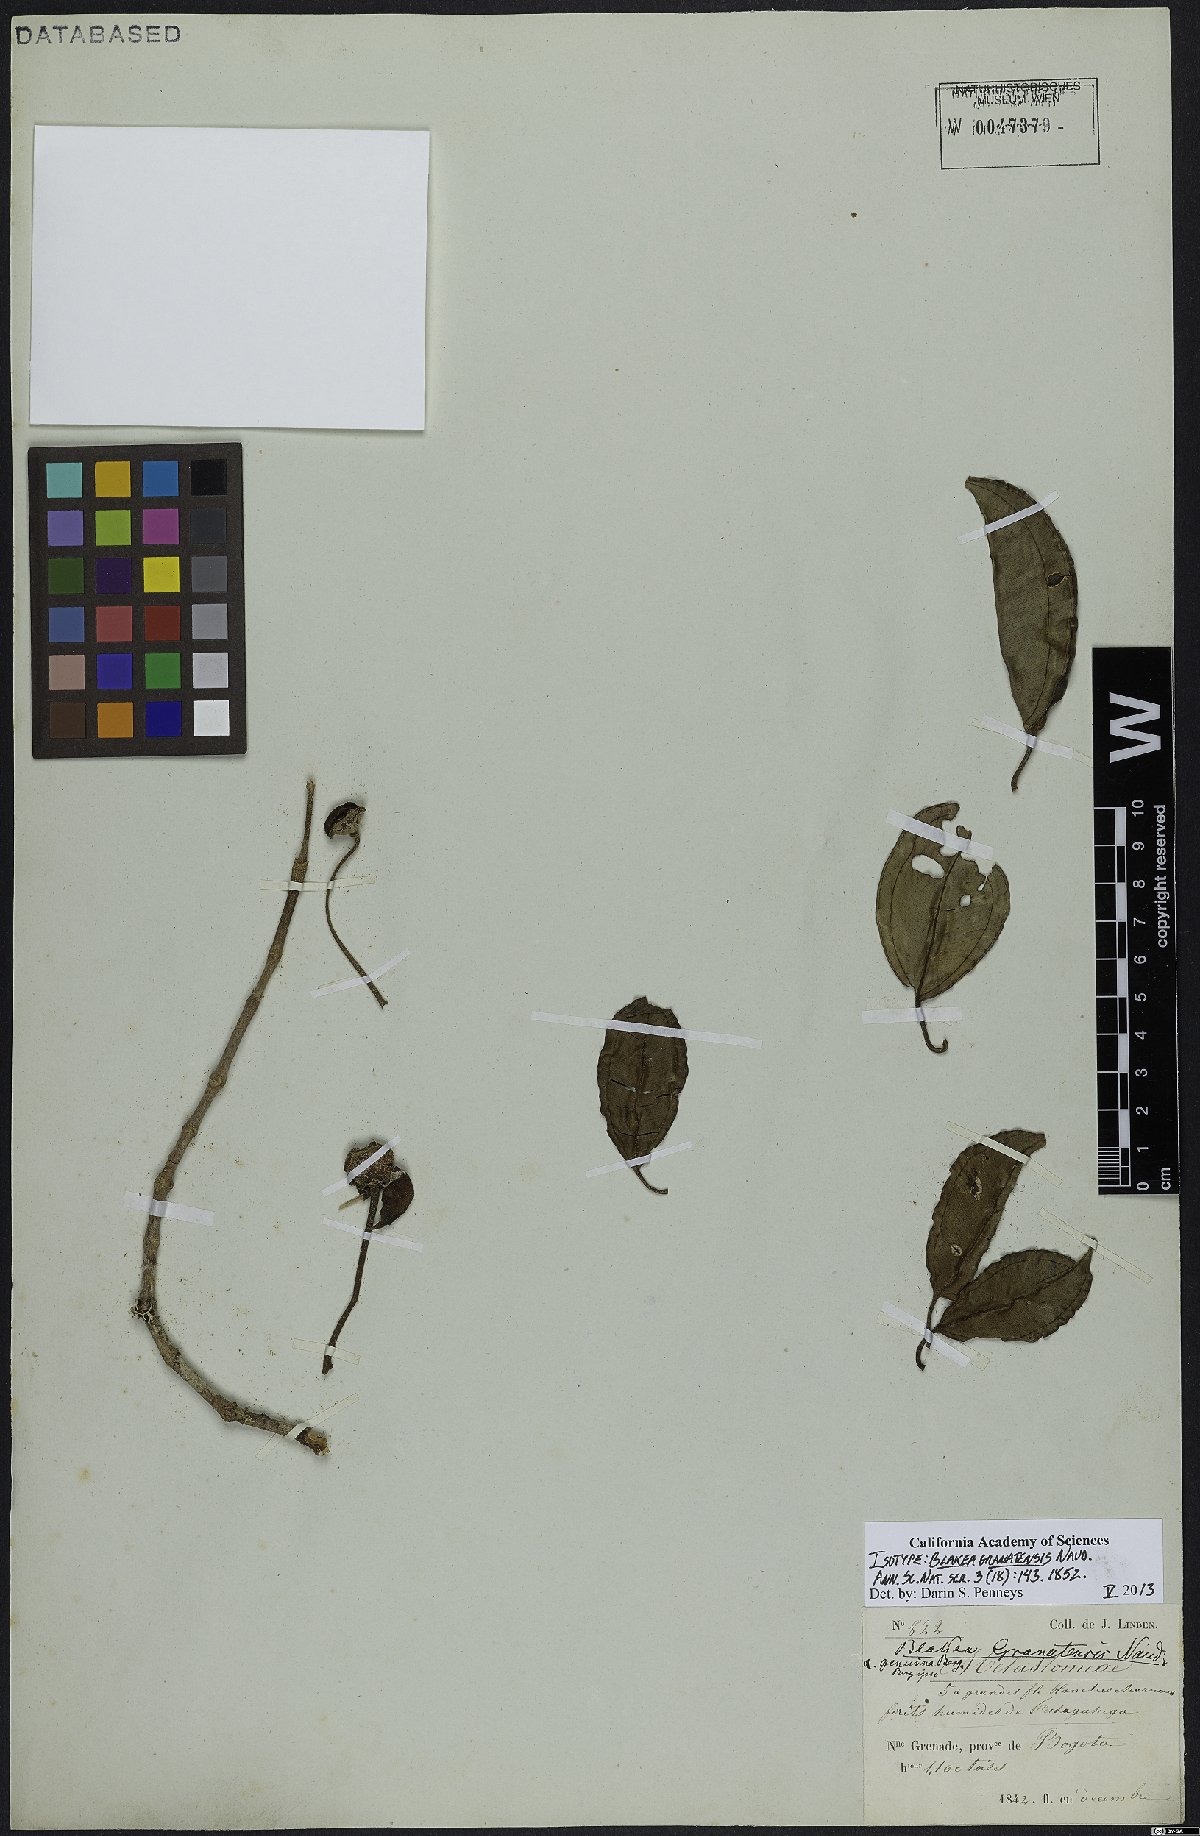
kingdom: Plantae
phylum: Tracheophyta
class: Magnoliopsida
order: Myrtales
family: Melastomataceae
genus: Blakea
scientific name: Blakea granatensis
